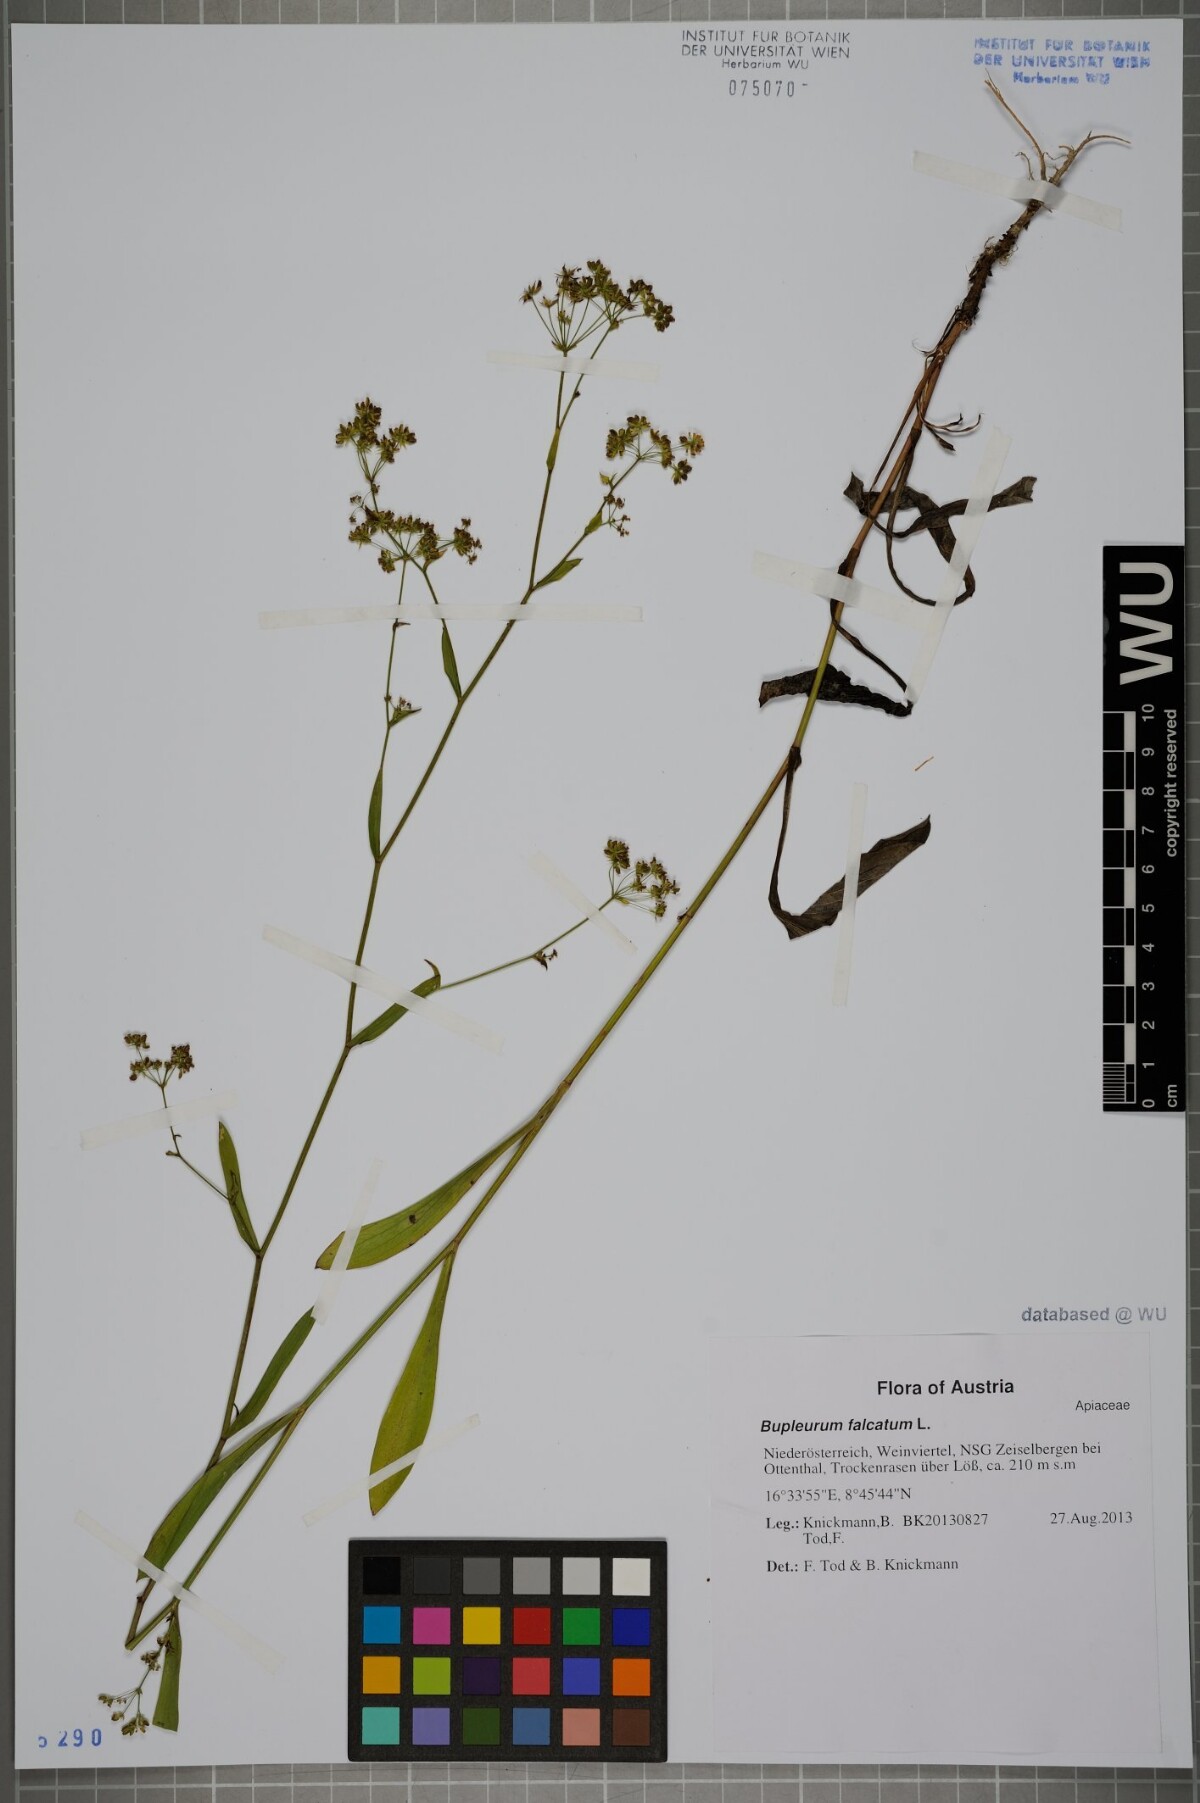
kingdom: Plantae
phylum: Tracheophyta
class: Magnoliopsida
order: Apiales
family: Apiaceae
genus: Bupleurum
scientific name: Bupleurum falcatum
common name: Sickle-leaved hare's-ear
